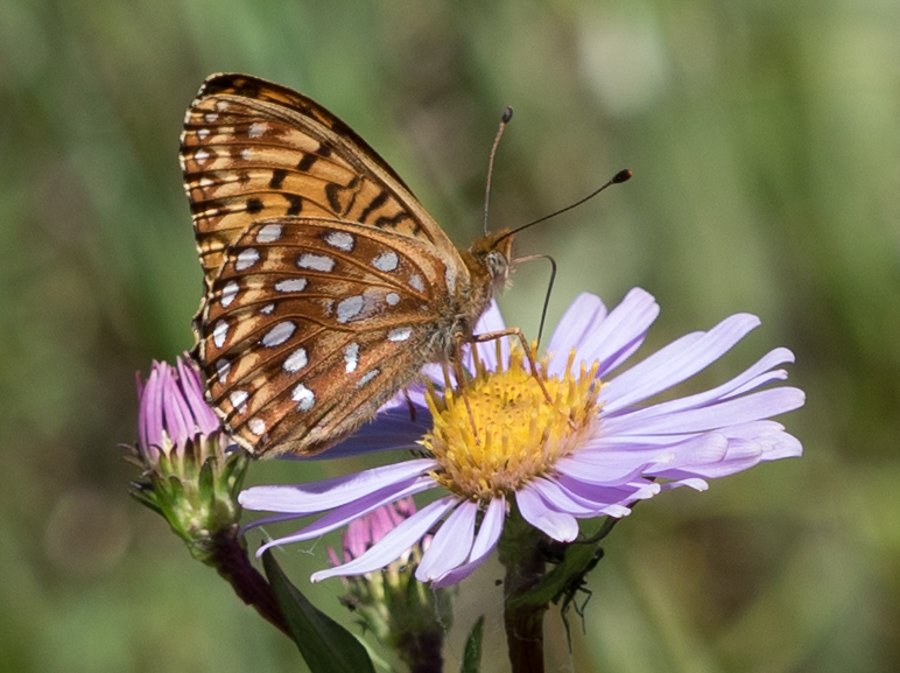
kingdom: Animalia
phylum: Arthropoda
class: Insecta
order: Lepidoptera
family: Nymphalidae
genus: Speyeria
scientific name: Speyeria atlantis
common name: Northwestern Fritillary
